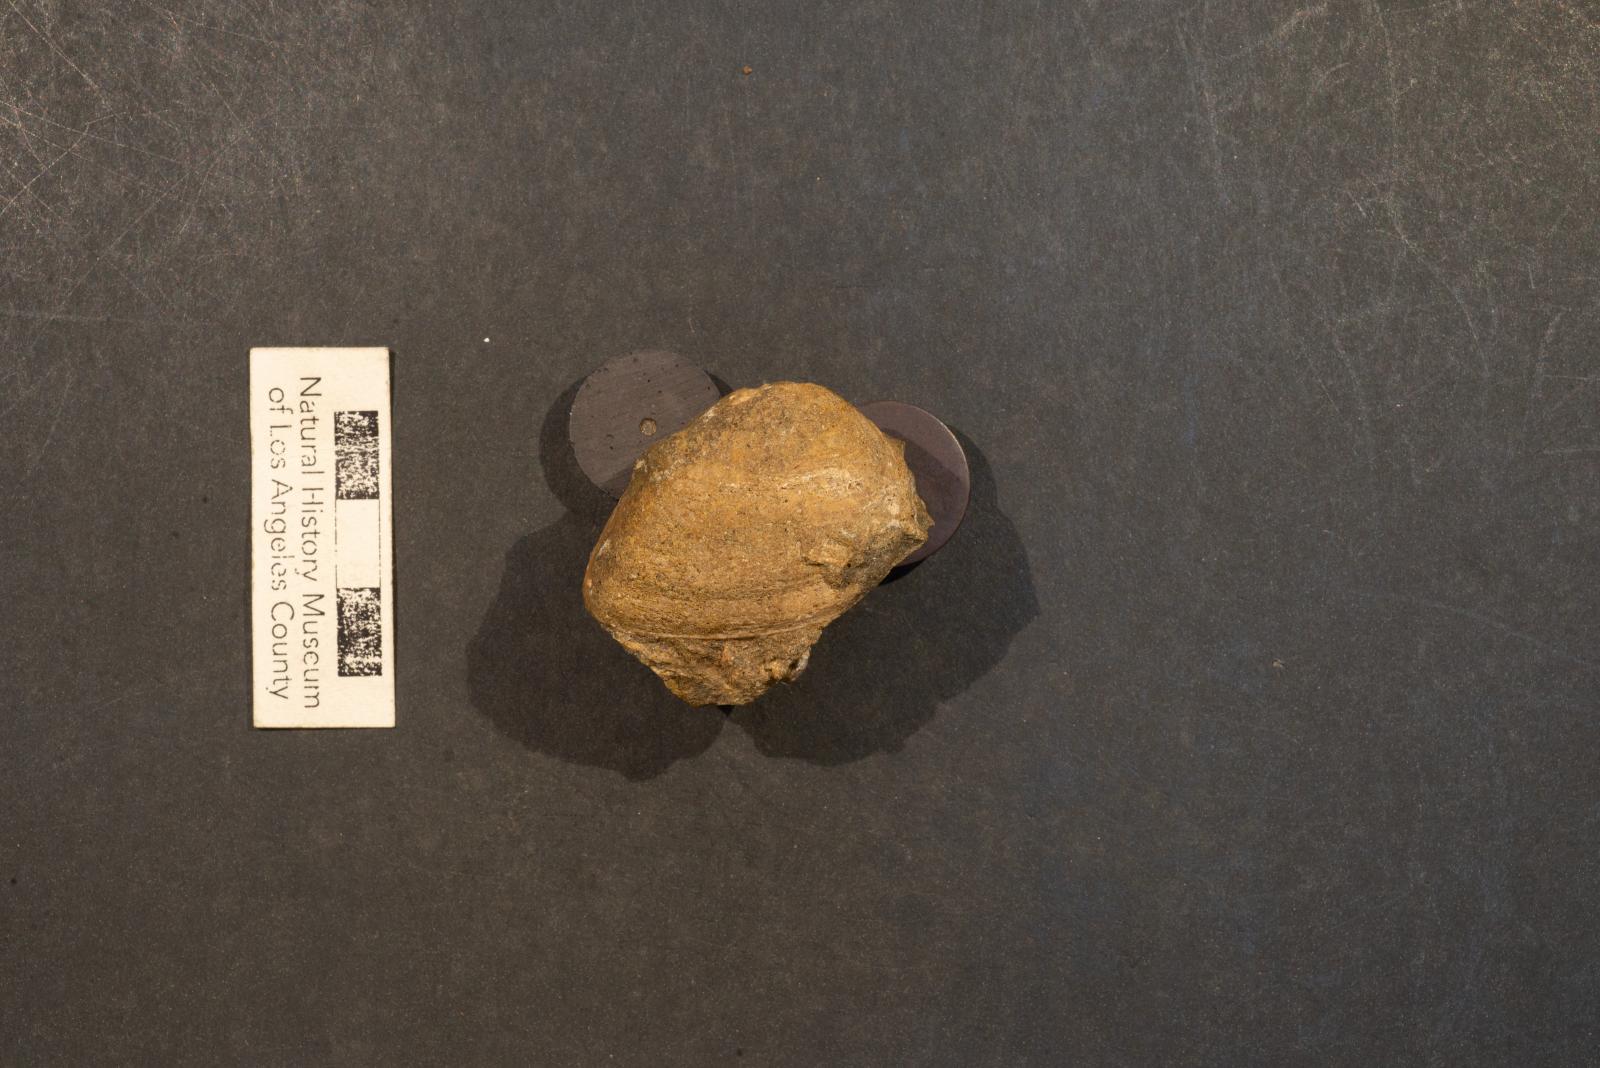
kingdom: Animalia
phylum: Mollusca
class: Bivalvia
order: Venerida
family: Arcticidae
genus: Etea
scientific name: Etea Meretrix angulata
